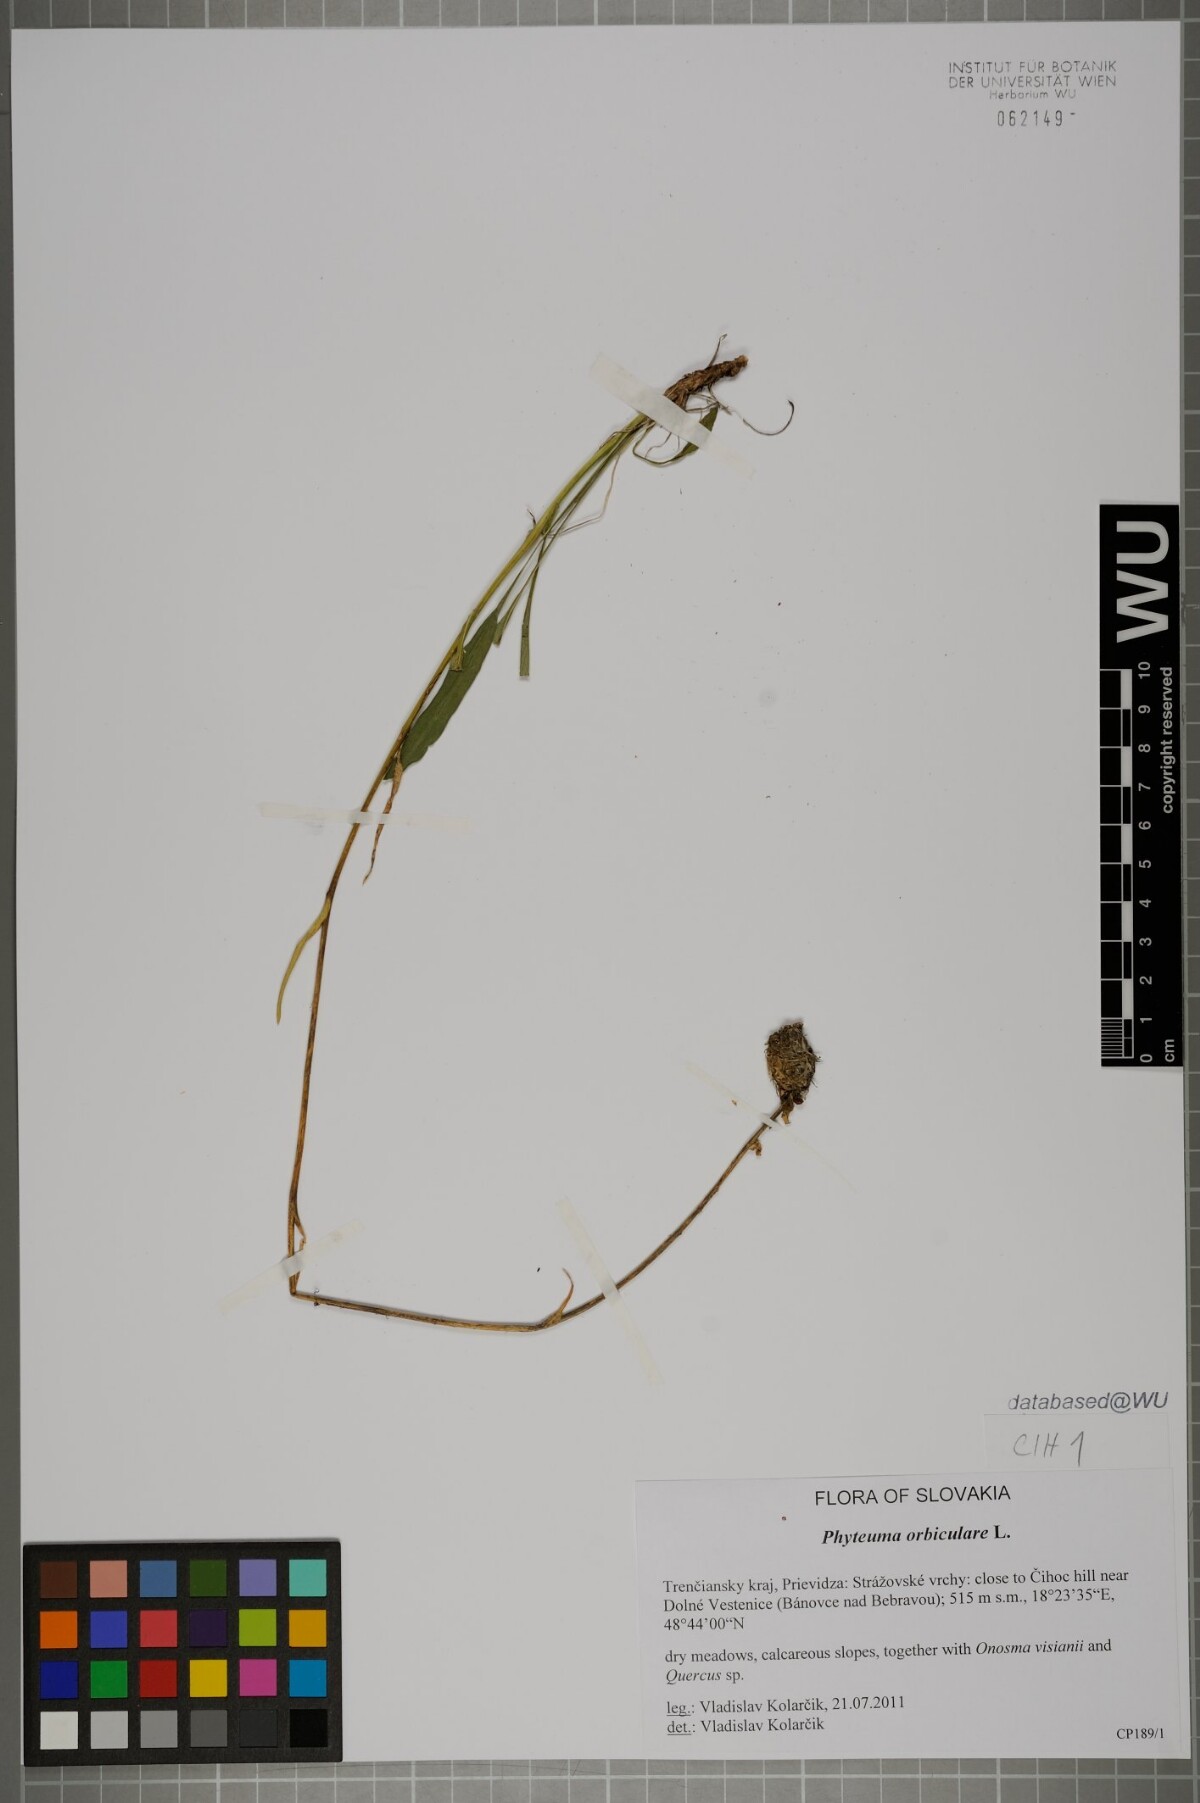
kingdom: Plantae
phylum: Tracheophyta
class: Magnoliopsida
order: Asterales
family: Campanulaceae
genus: Phyteuma
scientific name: Phyteuma orbiculare
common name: Round-headed rampion
